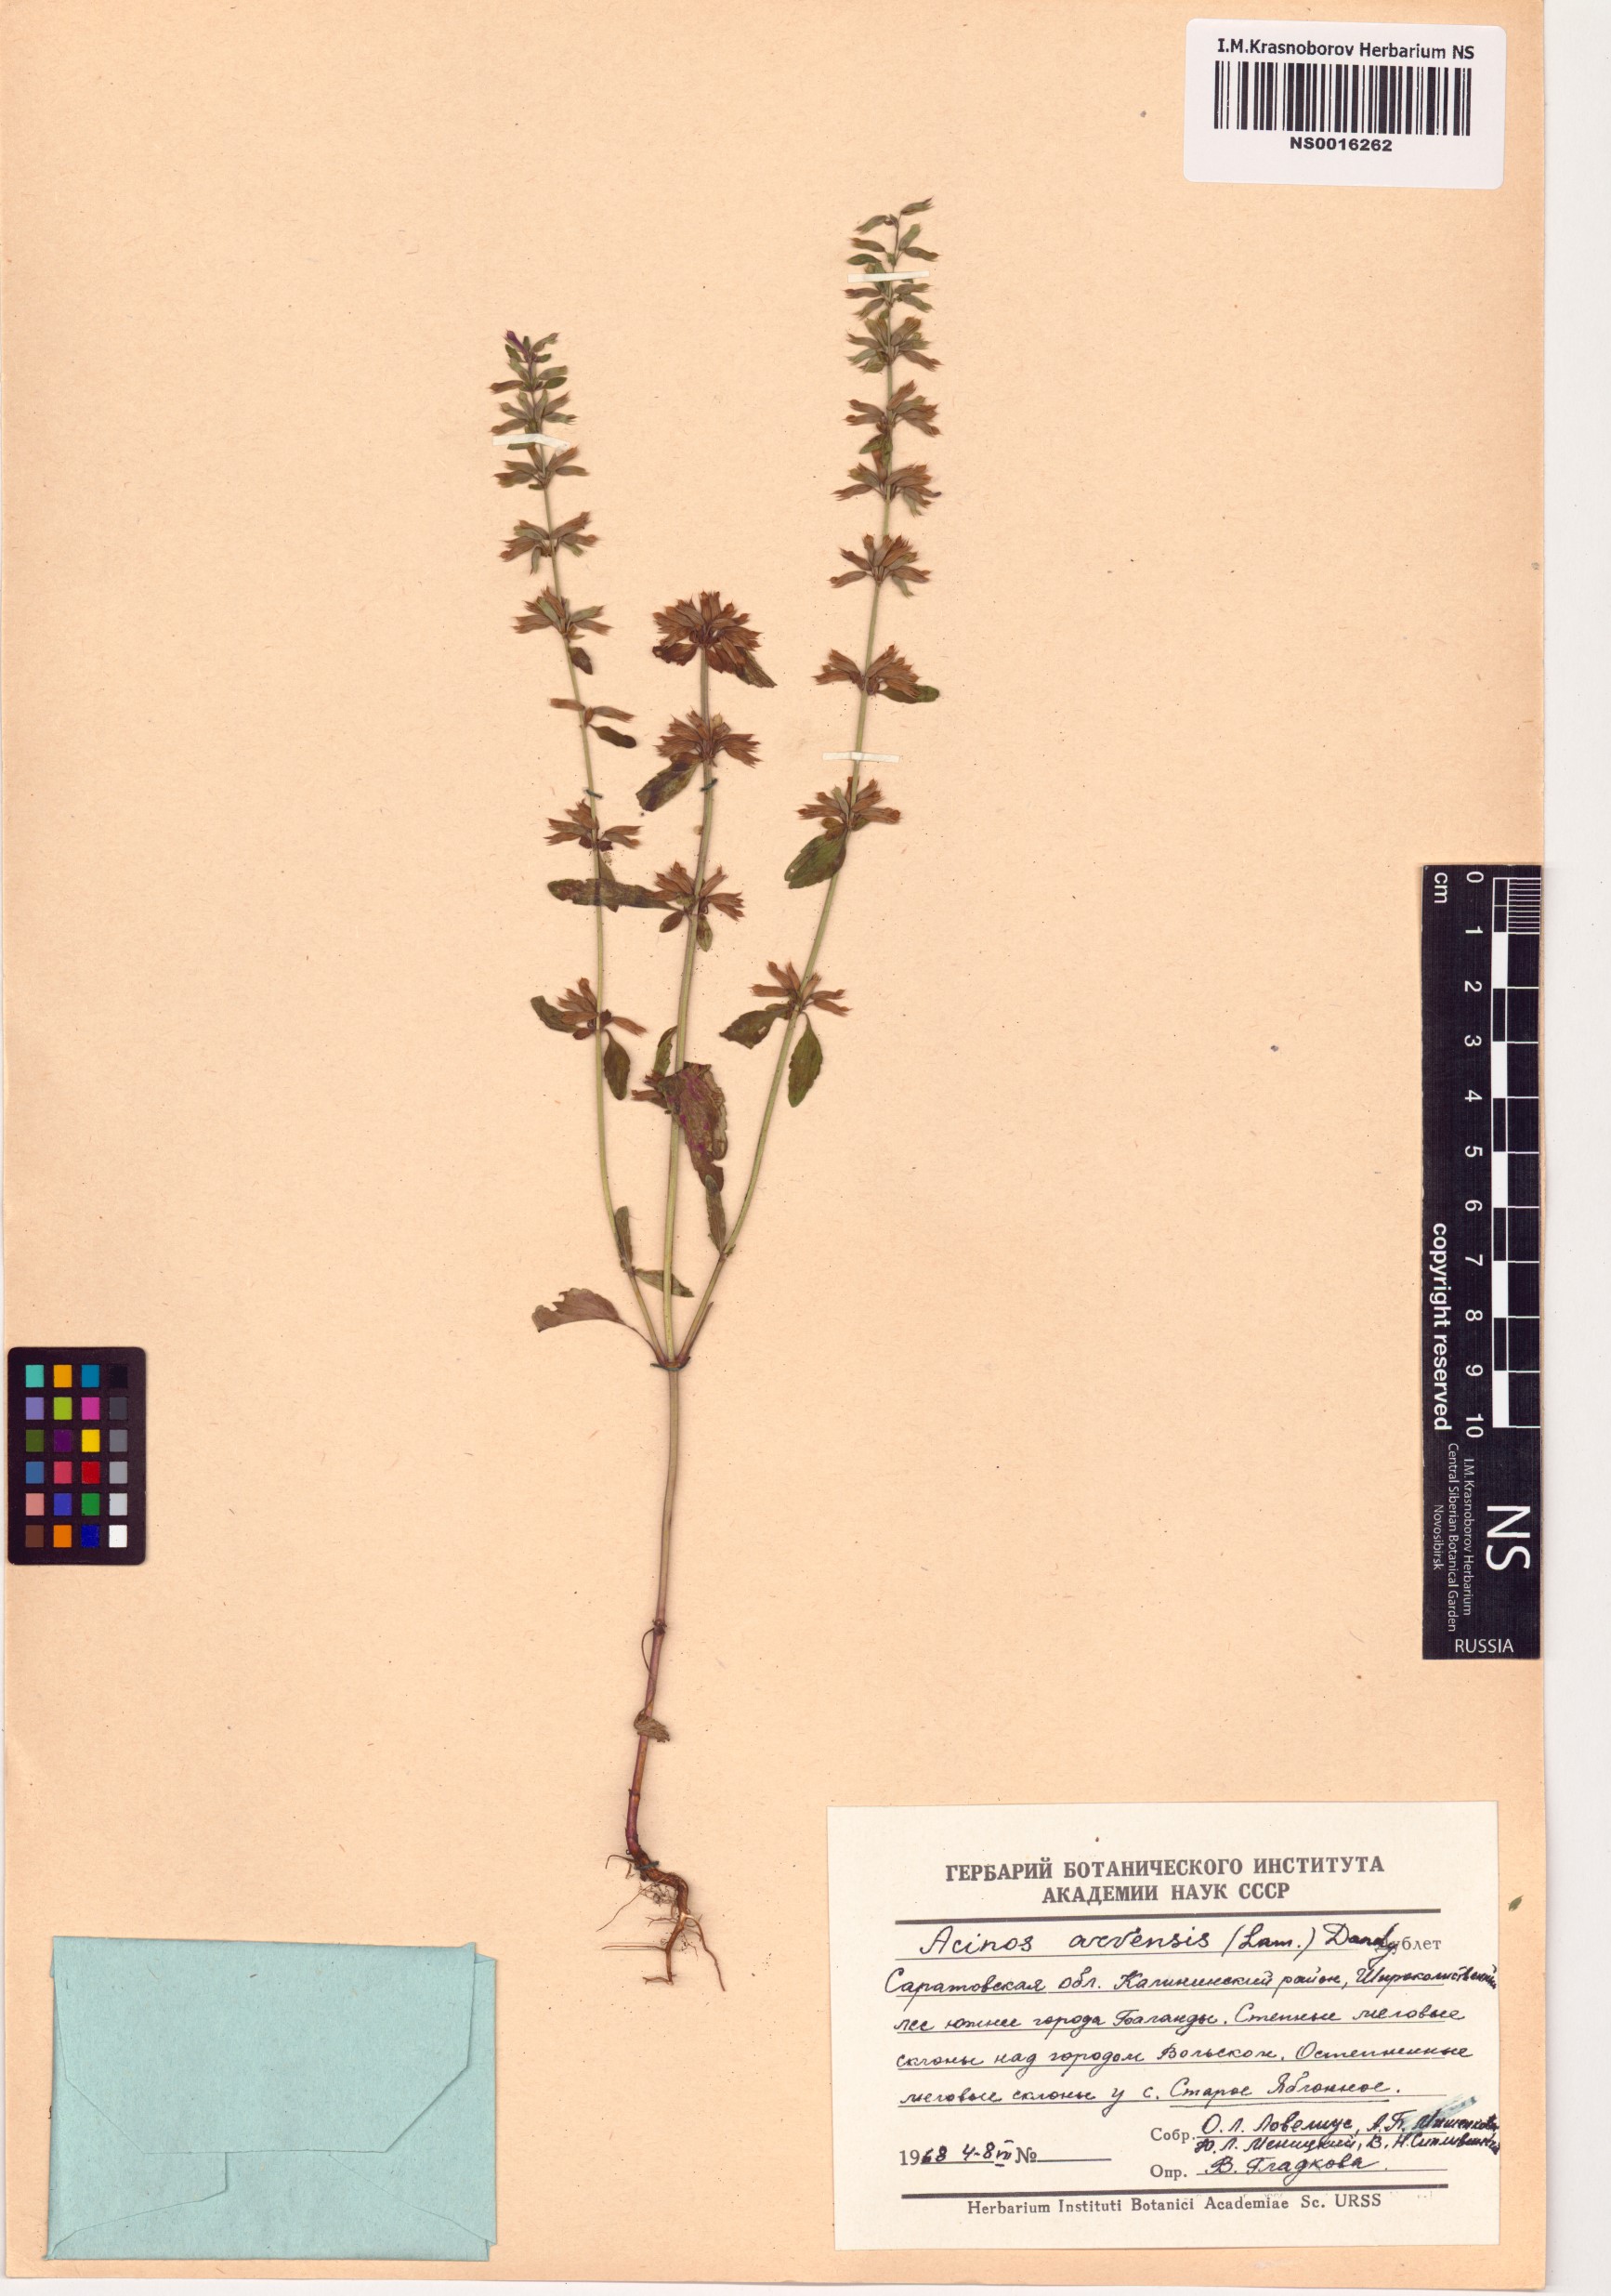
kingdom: Plantae
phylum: Tracheophyta
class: Magnoliopsida
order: Lamiales
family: Lamiaceae
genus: Clinopodium
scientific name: Clinopodium acinos
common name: Basil thyme
